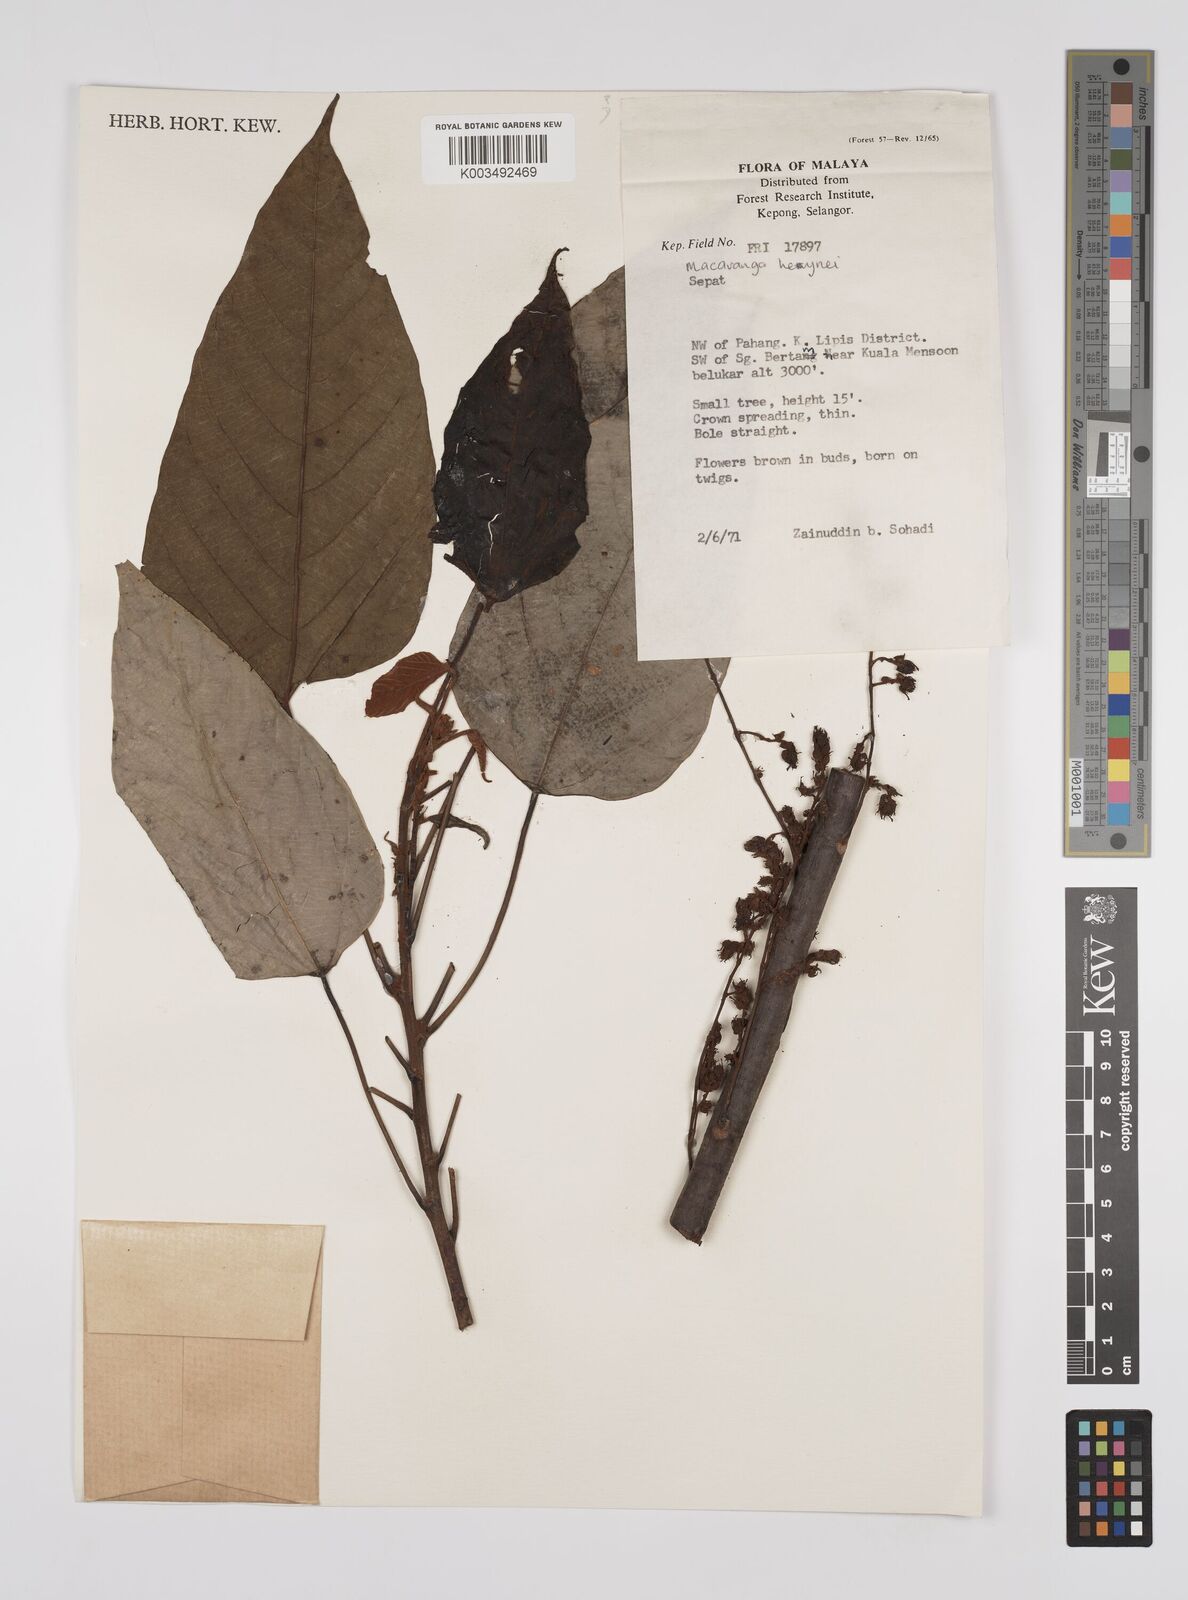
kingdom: Plantae
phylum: Tracheophyta
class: Magnoliopsida
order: Malpighiales
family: Euphorbiaceae
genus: Macaranga
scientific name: Macaranga heynei
